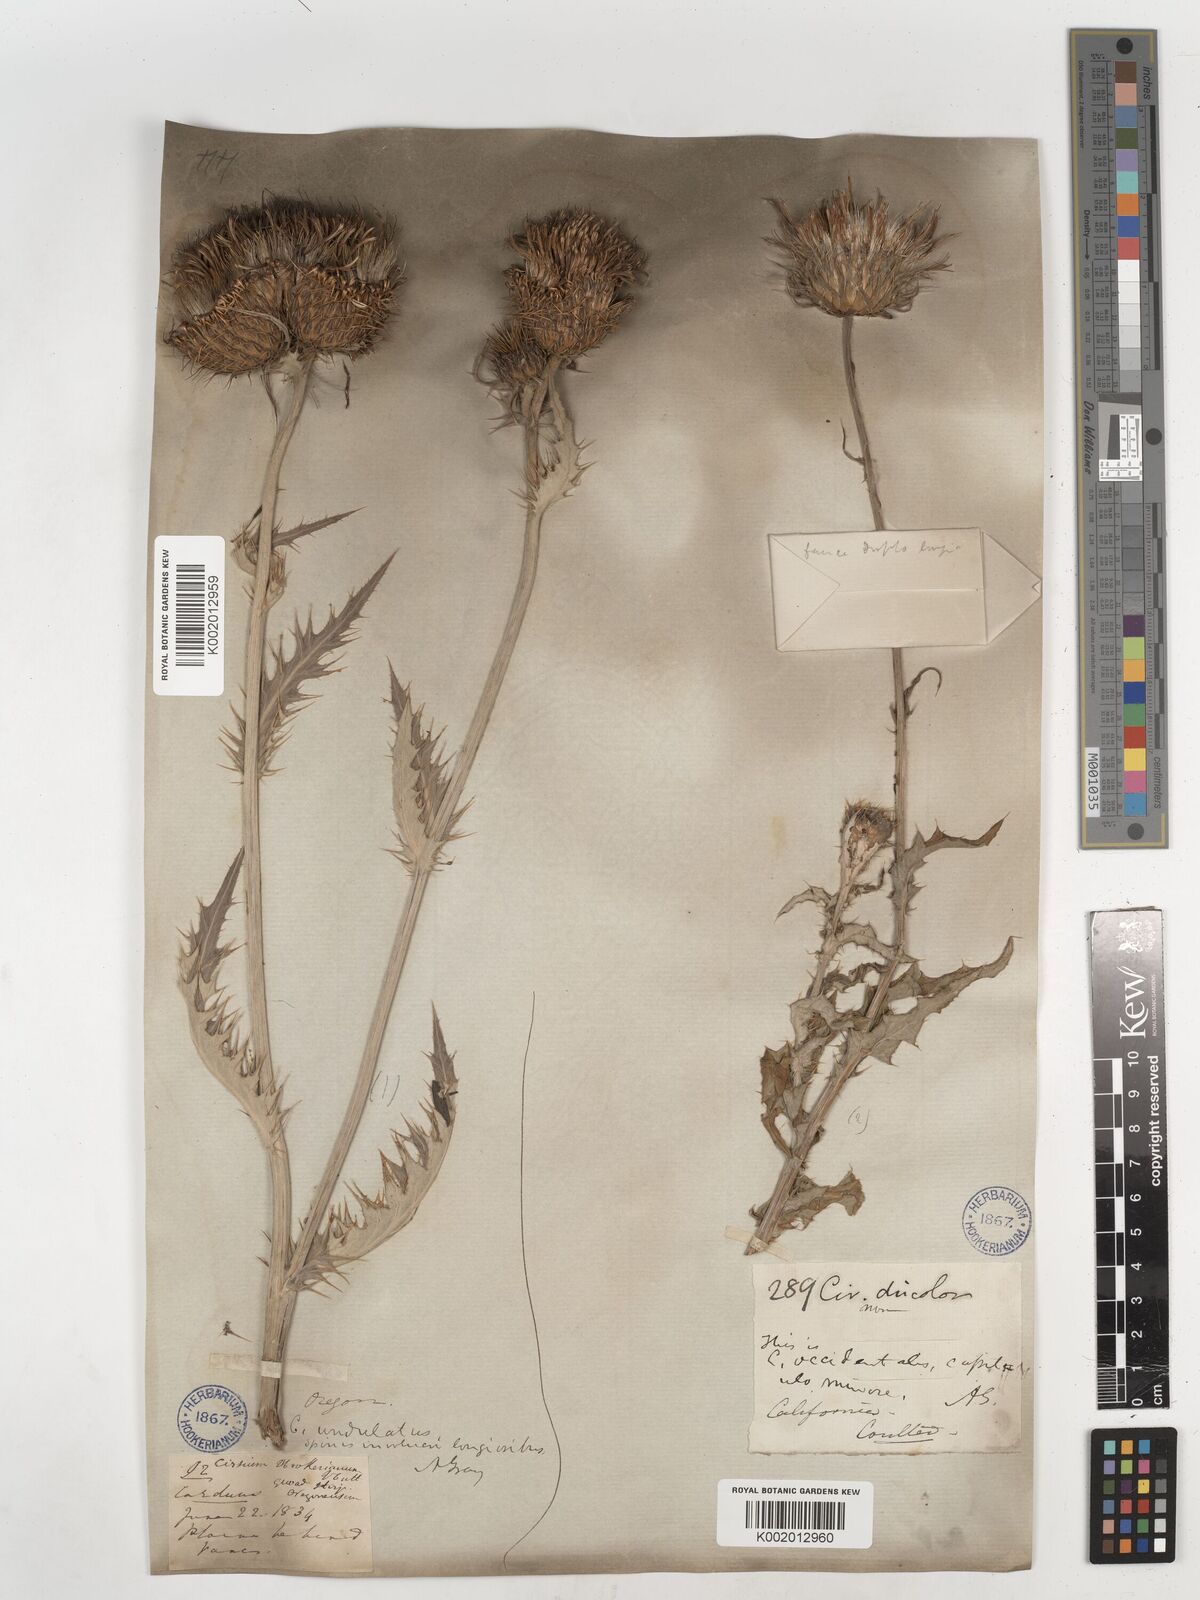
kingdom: Plantae
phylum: Tracheophyta
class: Magnoliopsida
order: Asterales
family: Asteraceae
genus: Cirsium
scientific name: Cirsium occidentale
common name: Western thistle
